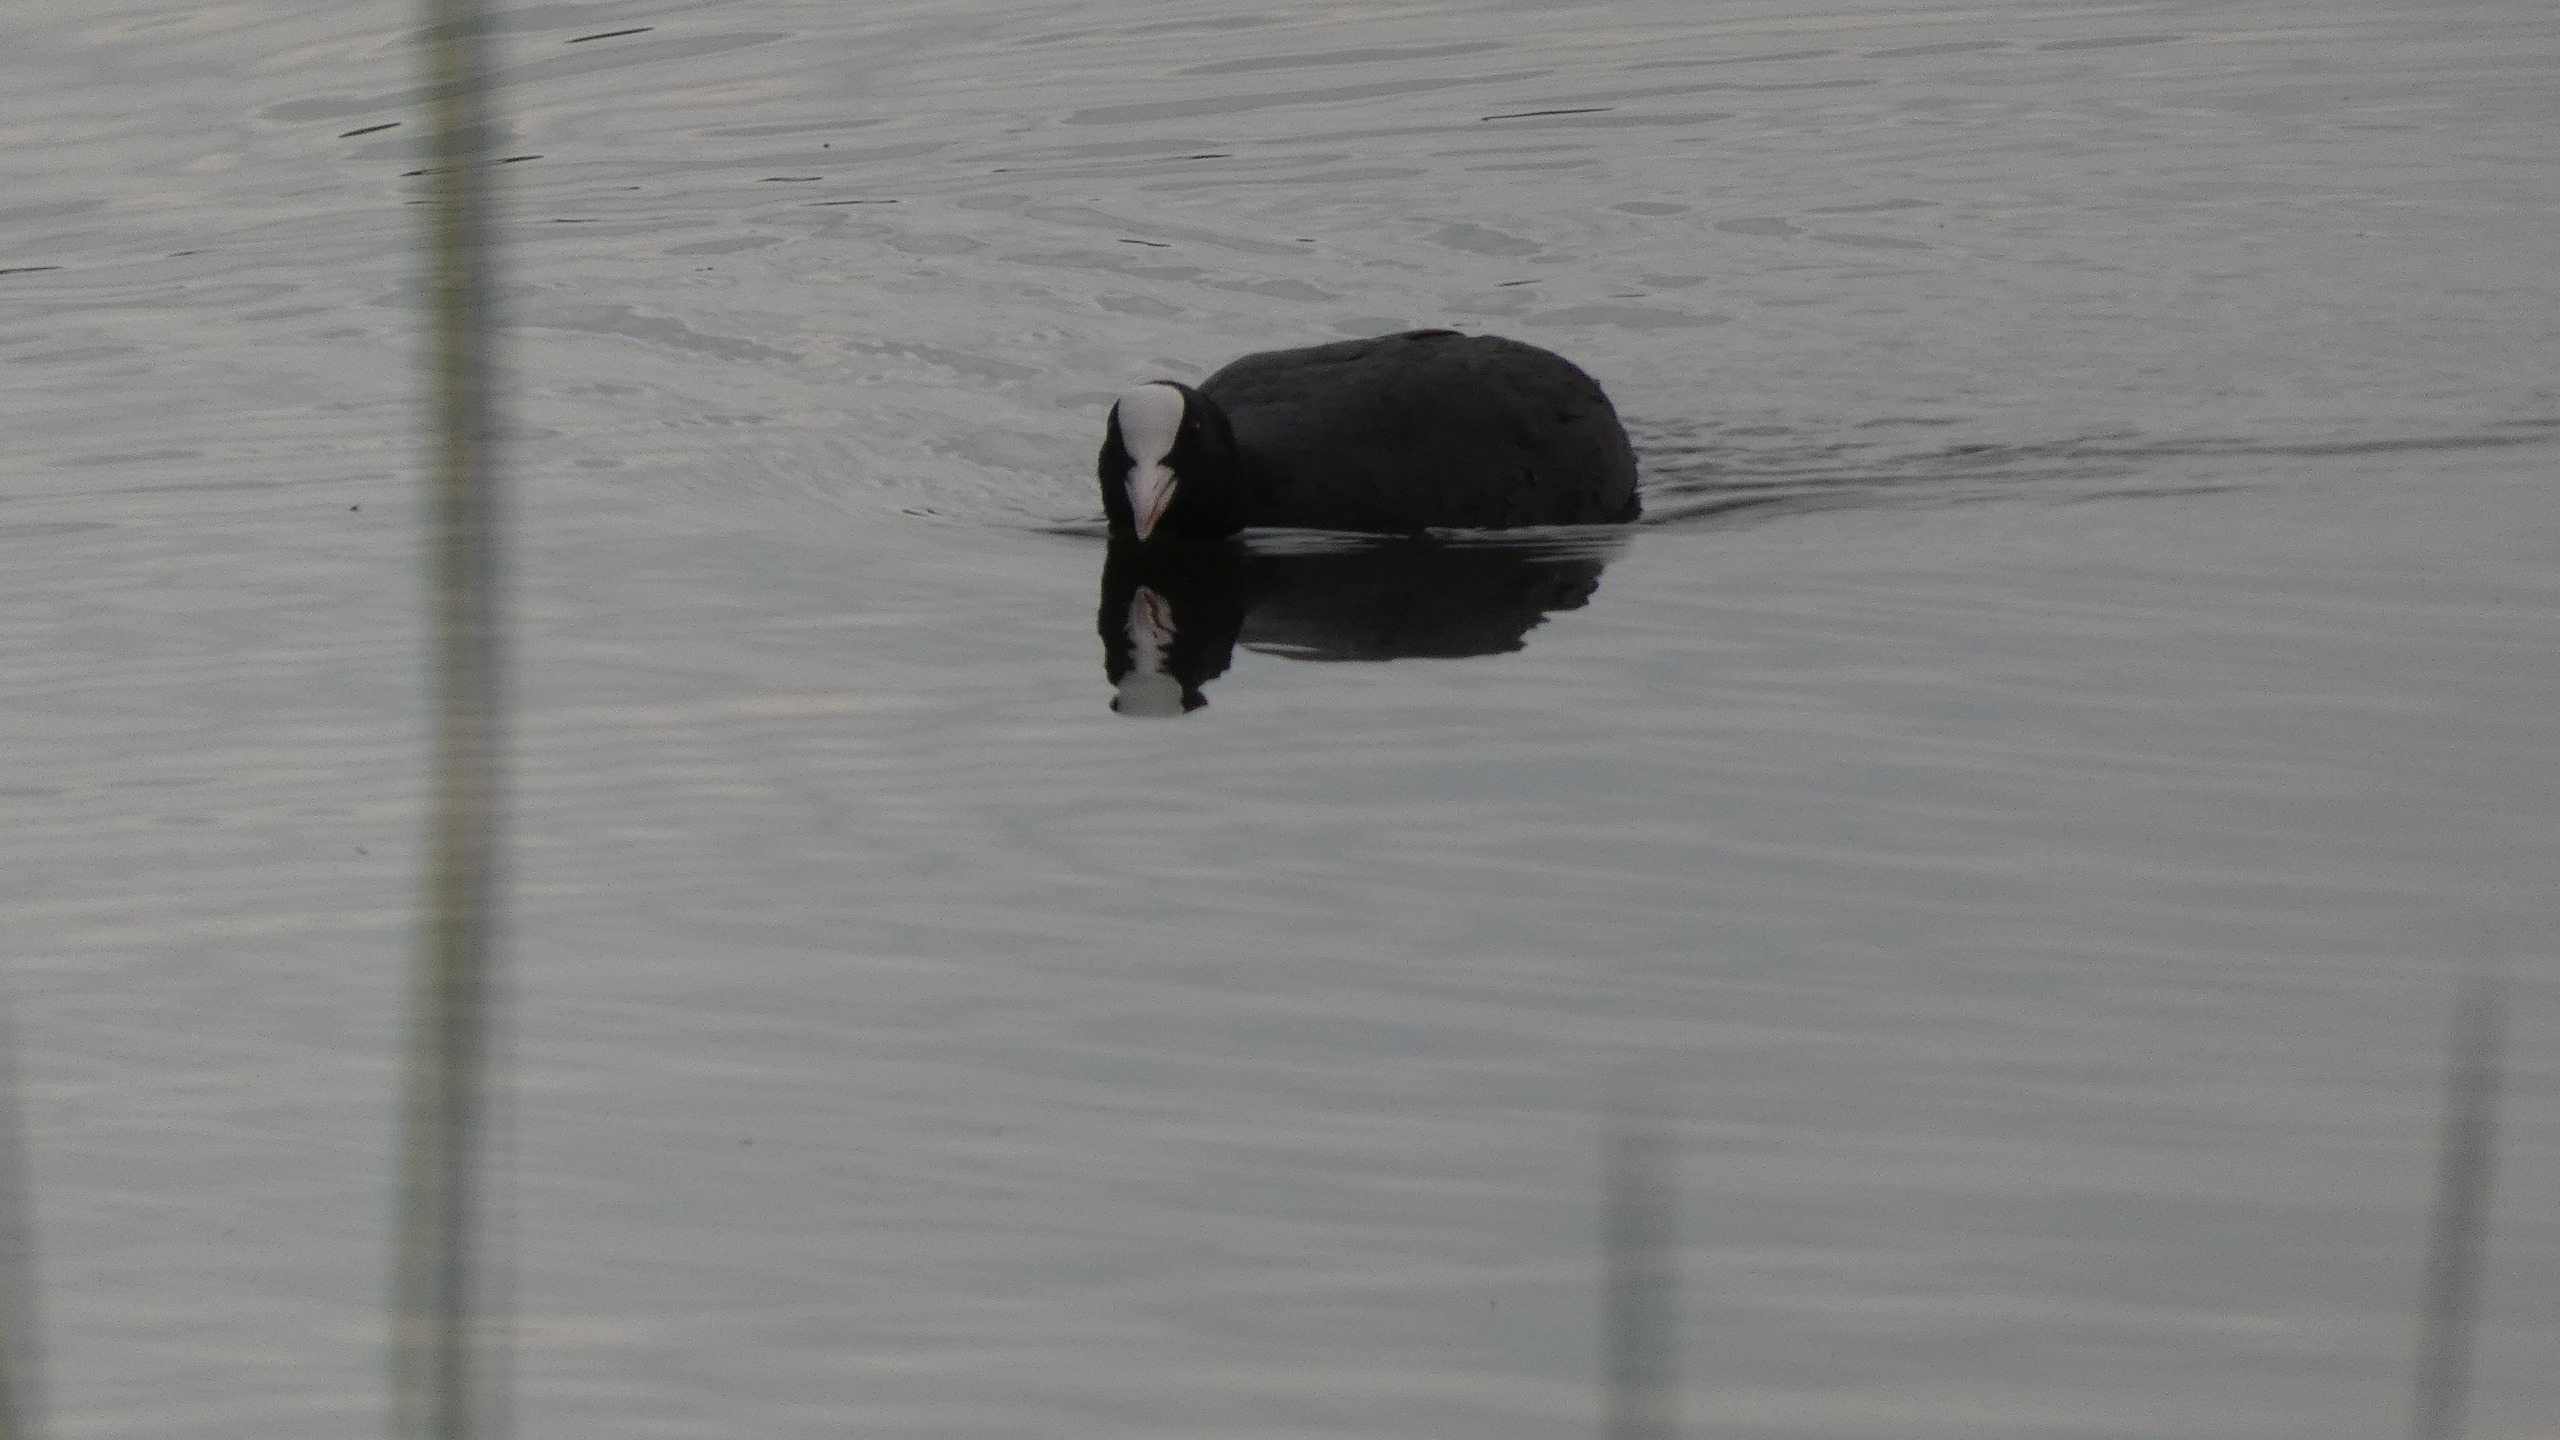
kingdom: Animalia
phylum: Chordata
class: Aves
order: Gruiformes
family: Rallidae
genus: Fulica
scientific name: Fulica atra
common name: Blishøne
